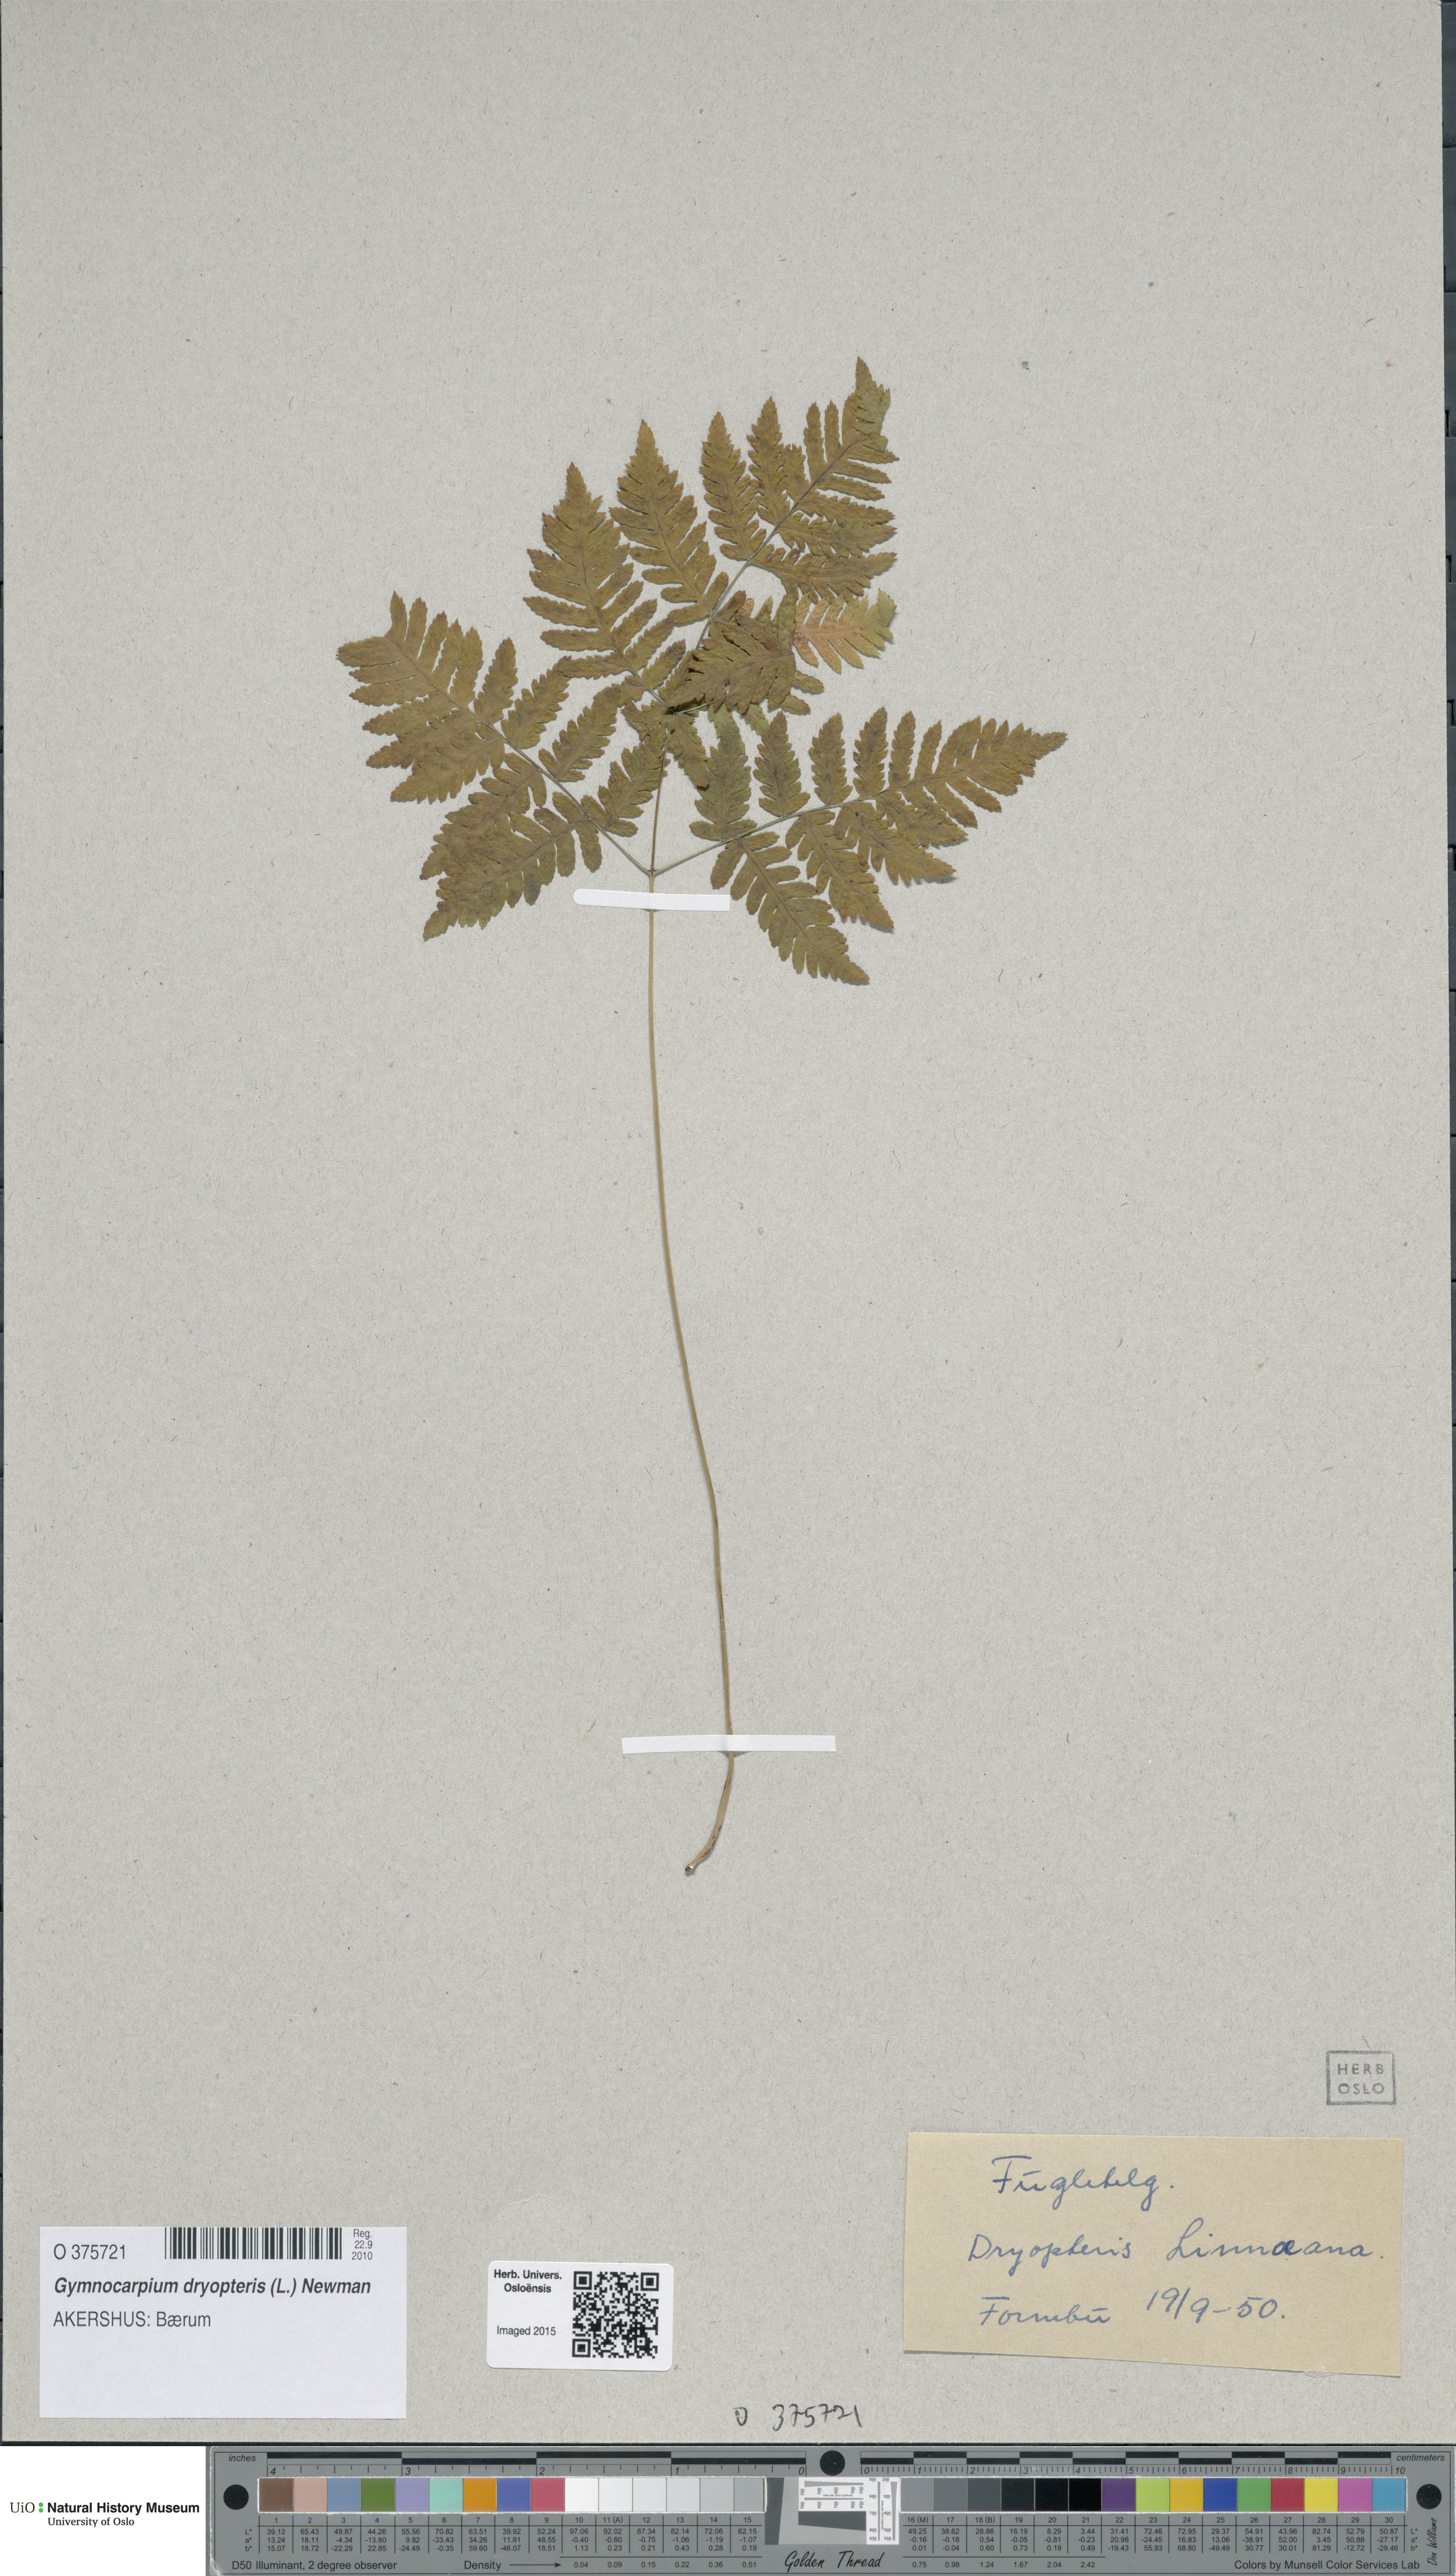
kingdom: Plantae
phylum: Tracheophyta
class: Polypodiopsida
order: Polypodiales
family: Cystopteridaceae
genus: Gymnocarpium
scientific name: Gymnocarpium dryopteris
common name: Oak fern
